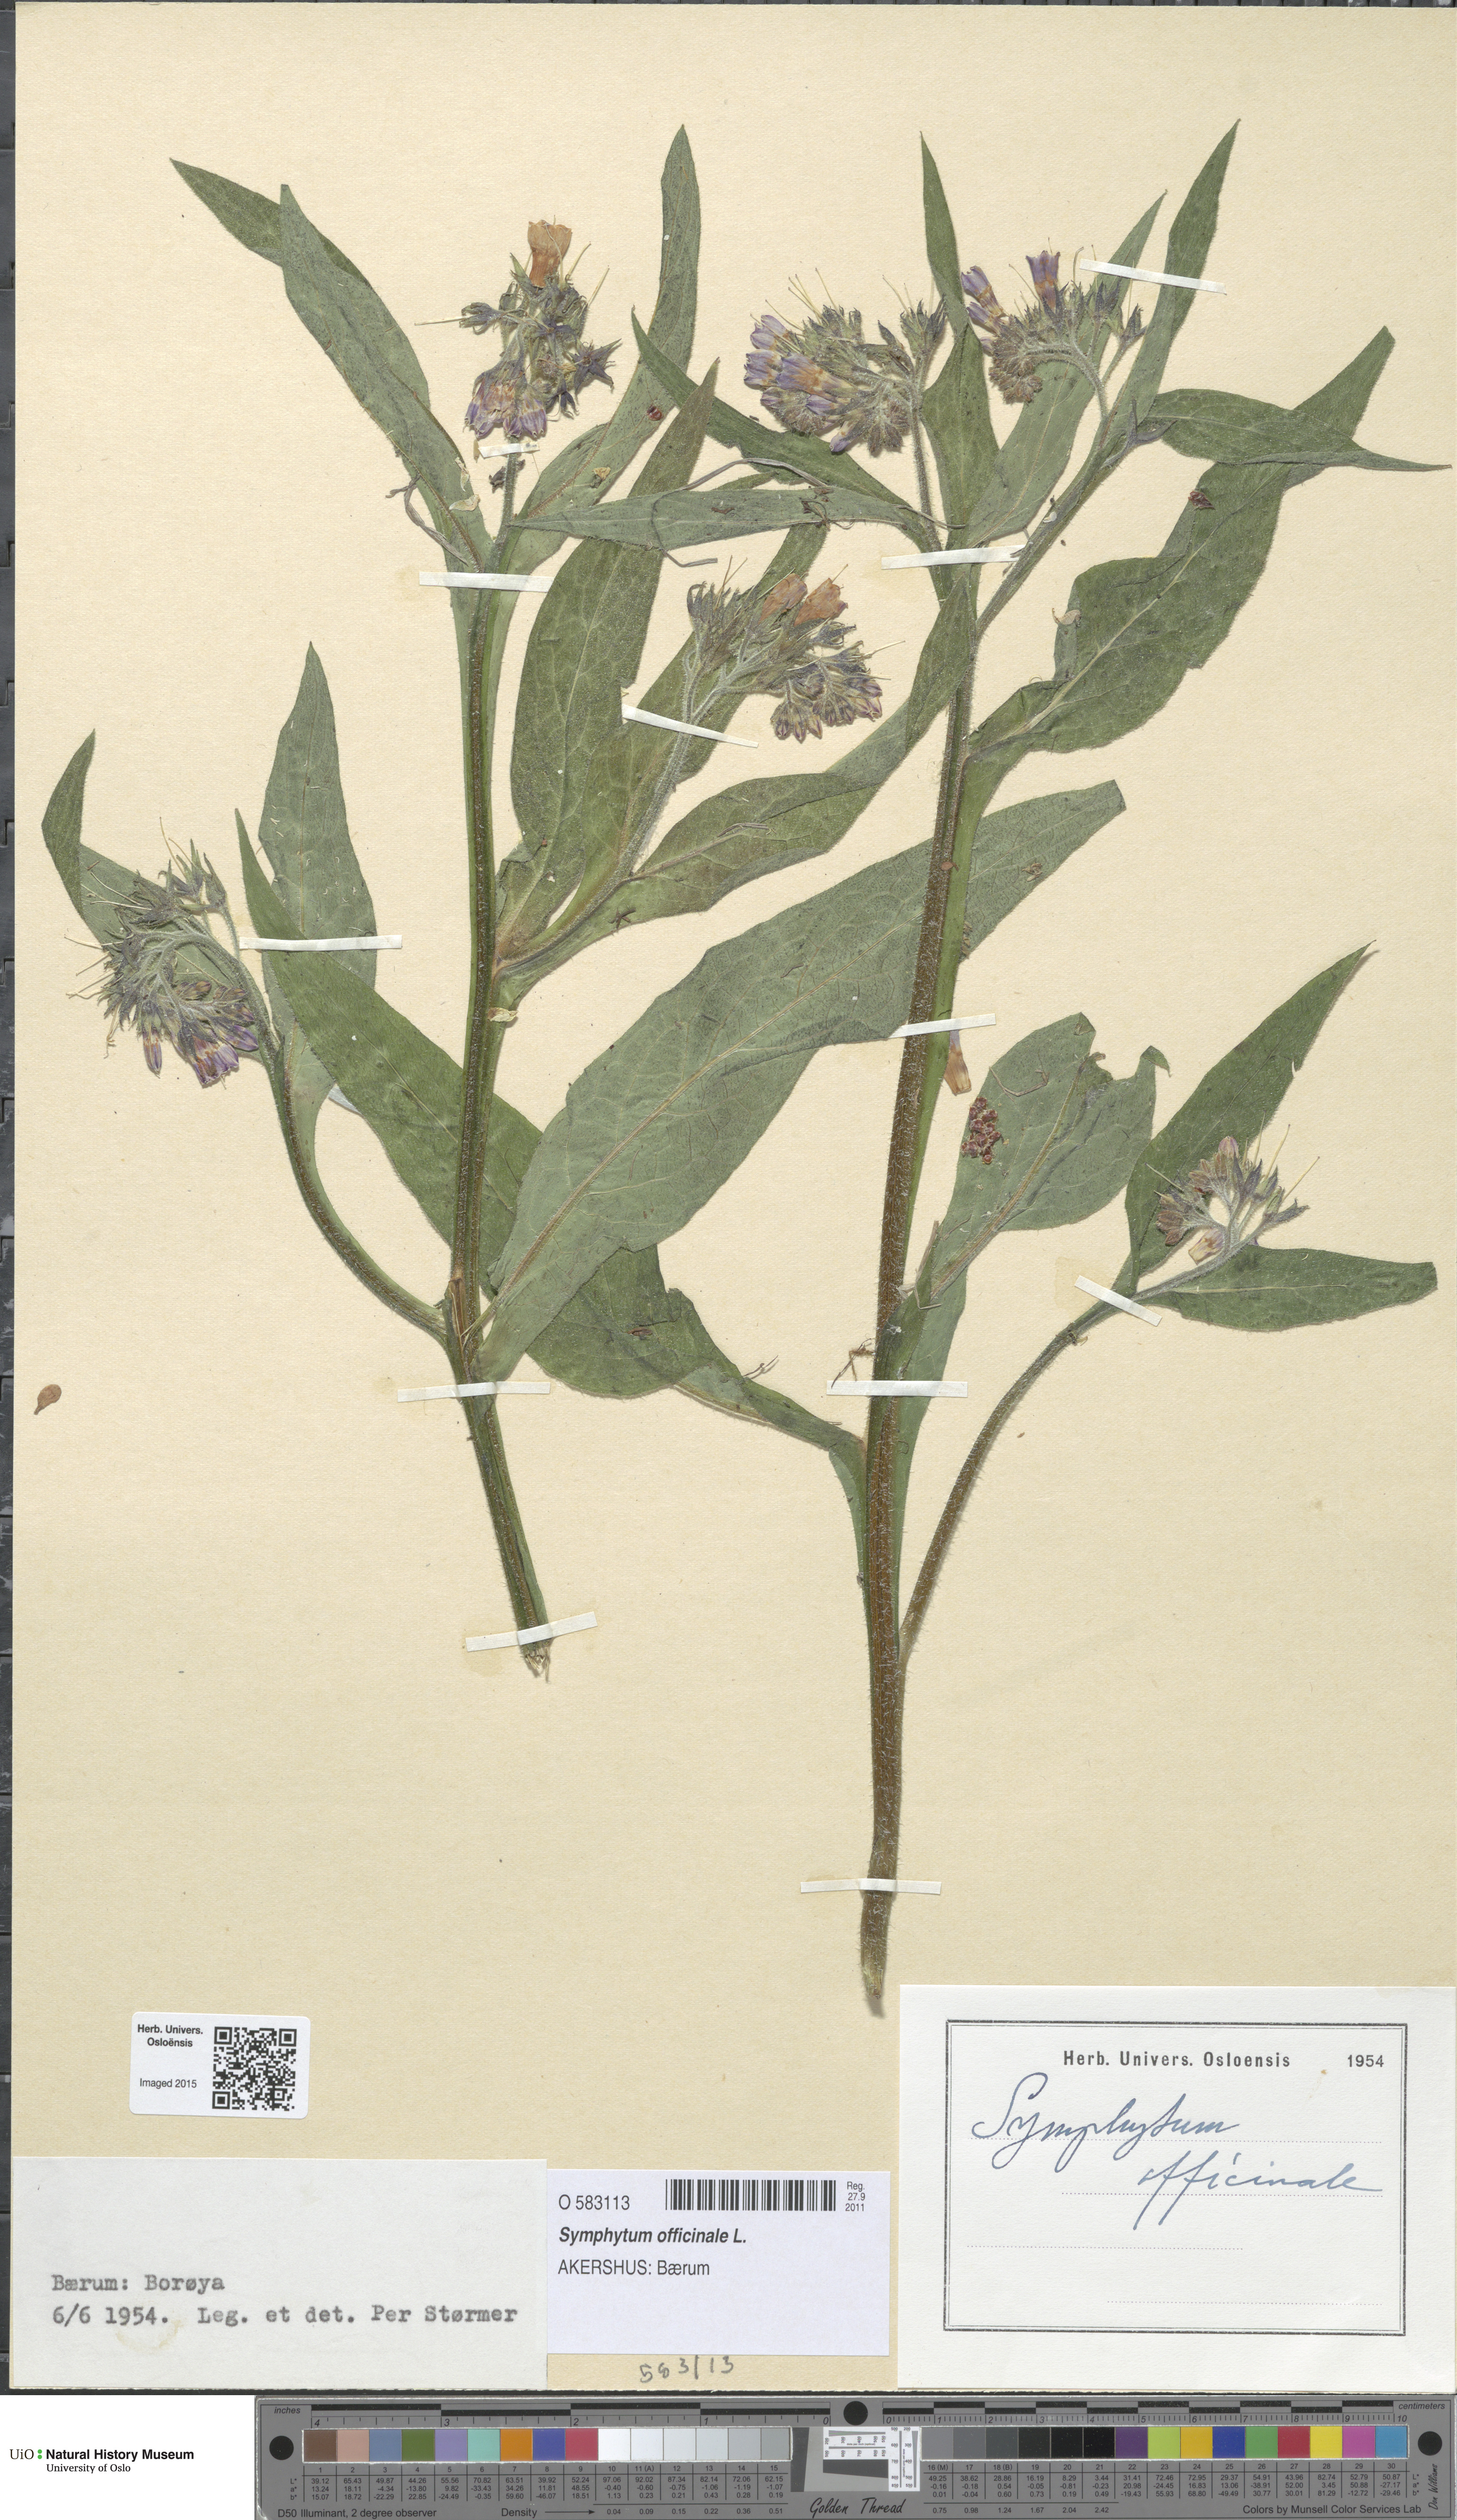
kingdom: Plantae
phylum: Tracheophyta
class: Magnoliopsida
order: Boraginales
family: Boraginaceae
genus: Symphytum
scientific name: Symphytum officinale
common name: Common comfrey
